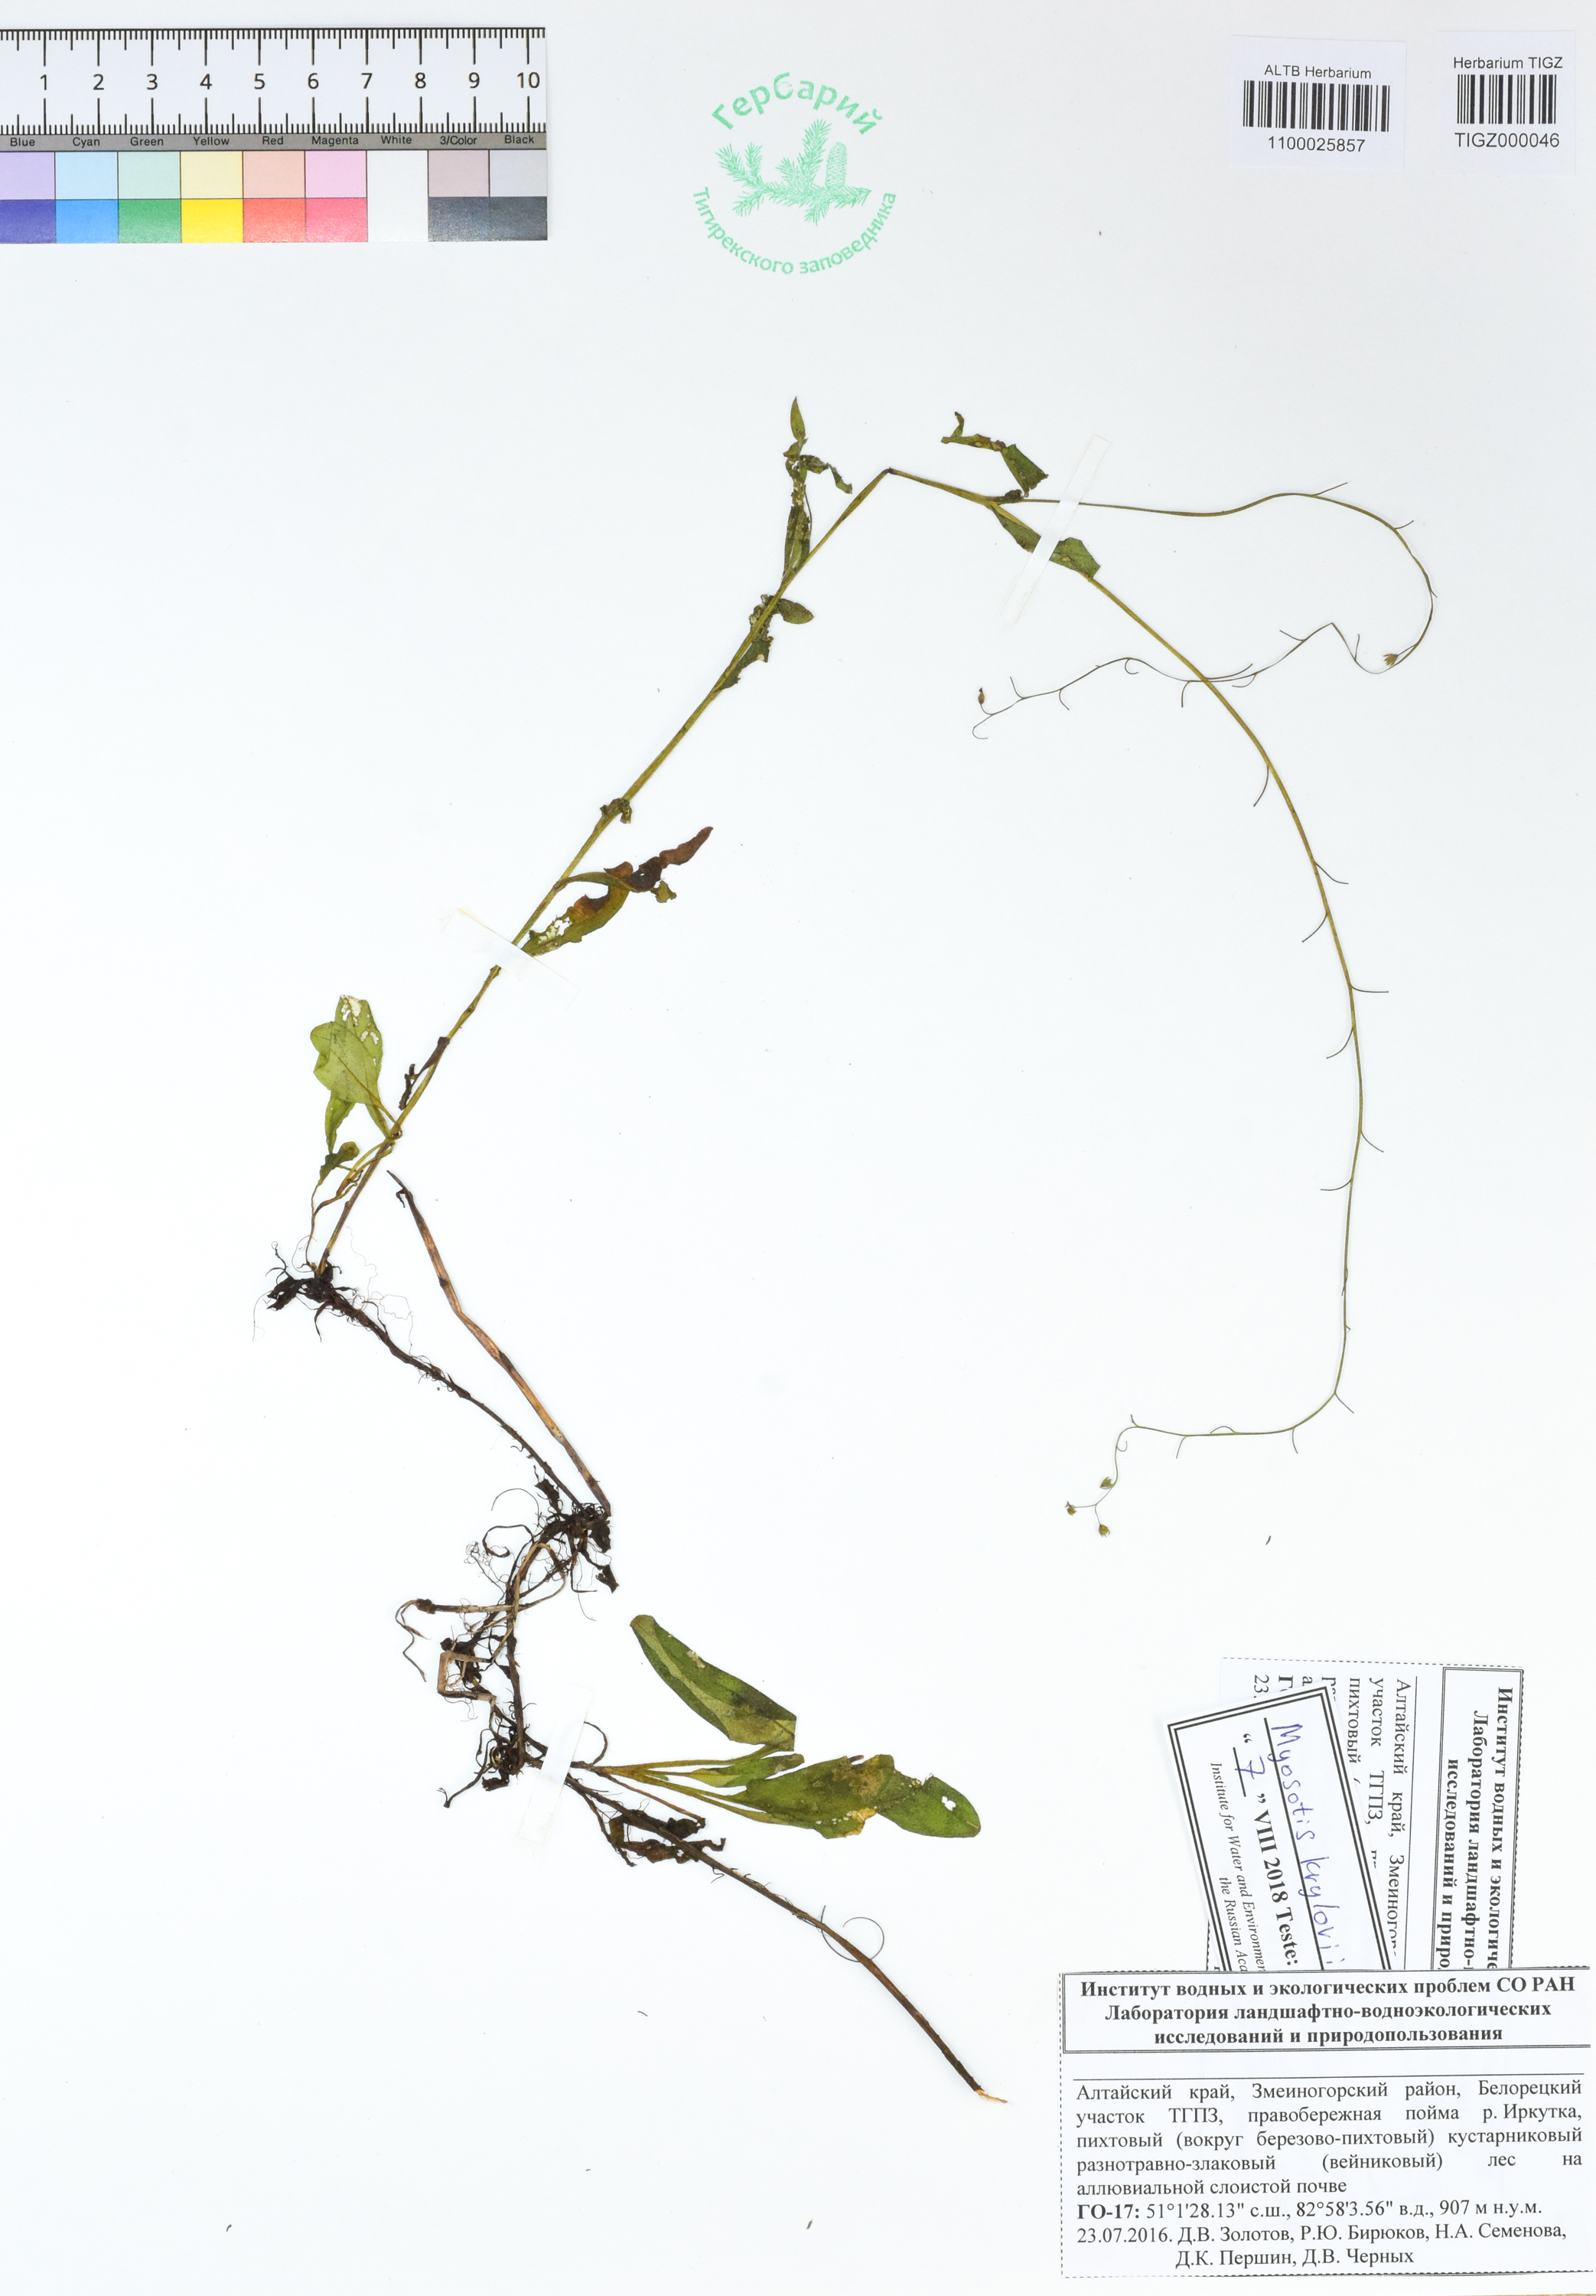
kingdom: Plantae
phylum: Tracheophyta
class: Magnoliopsida
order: Boraginales
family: Boraginaceae
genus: Myosotis
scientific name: Myosotis krylovii
